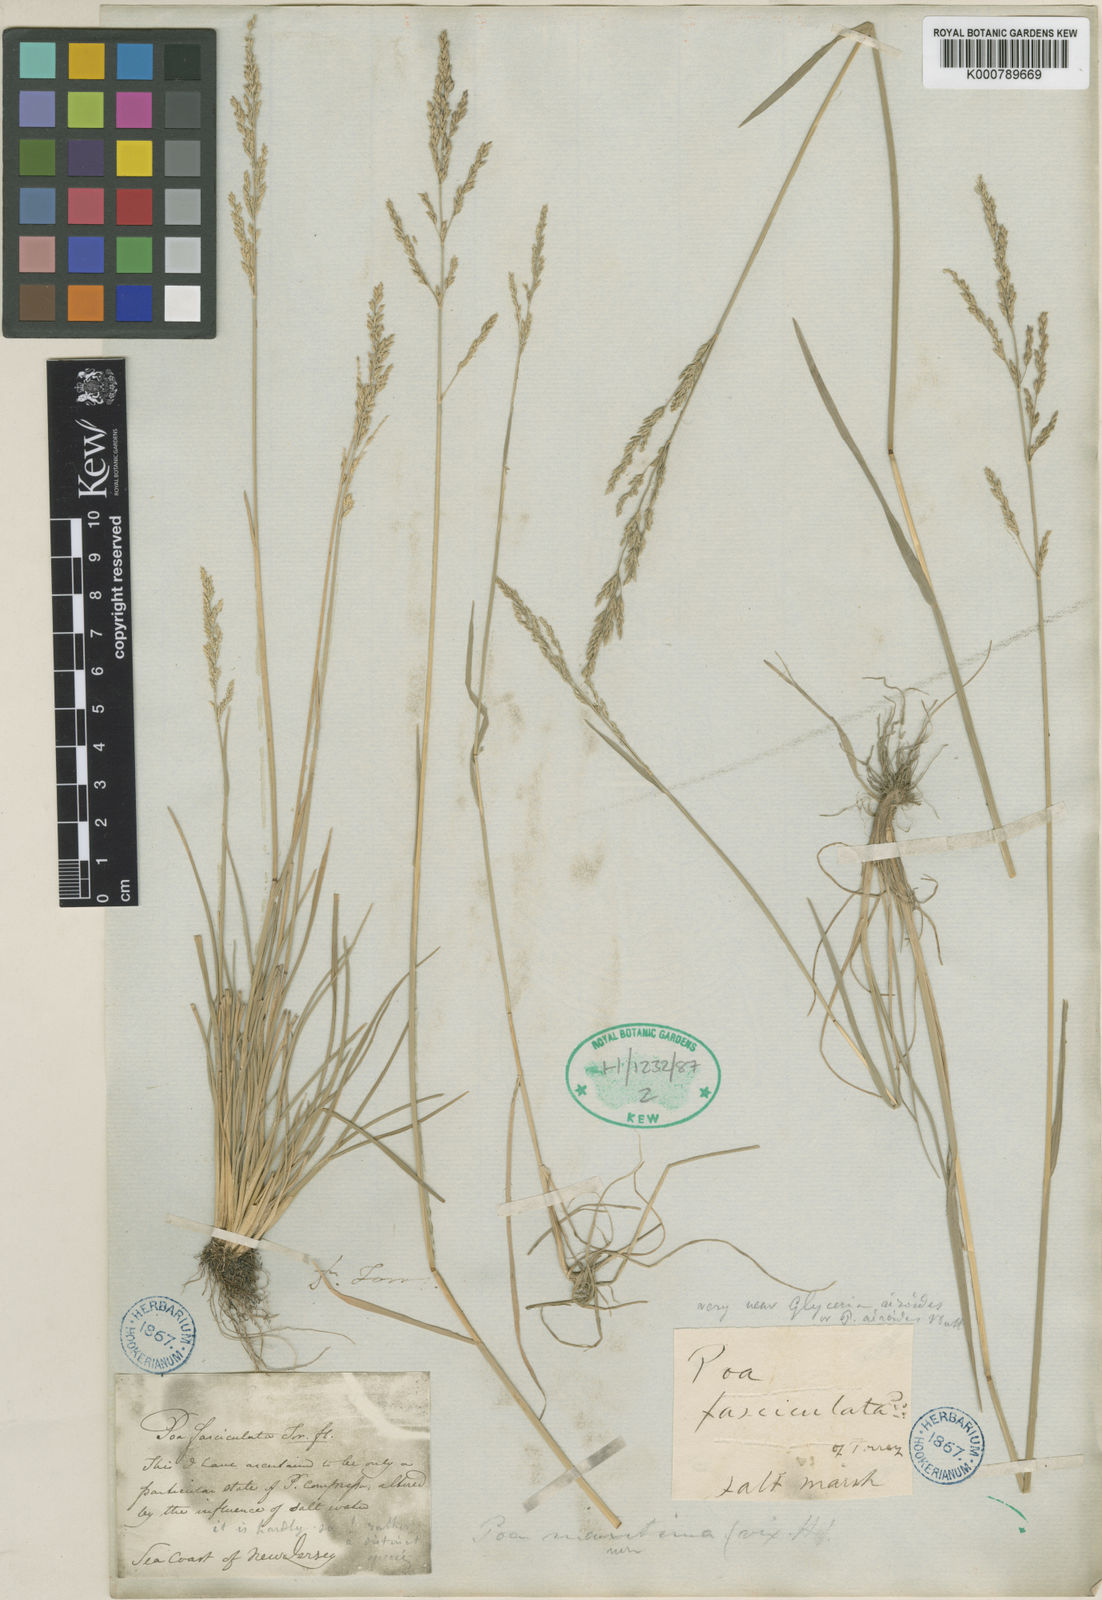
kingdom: Plantae
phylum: Tracheophyta
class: Liliopsida
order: Poales
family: Poaceae
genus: Puccinellia
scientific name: Puccinellia fasciculata
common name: Borrer's saltmarsh-grass
